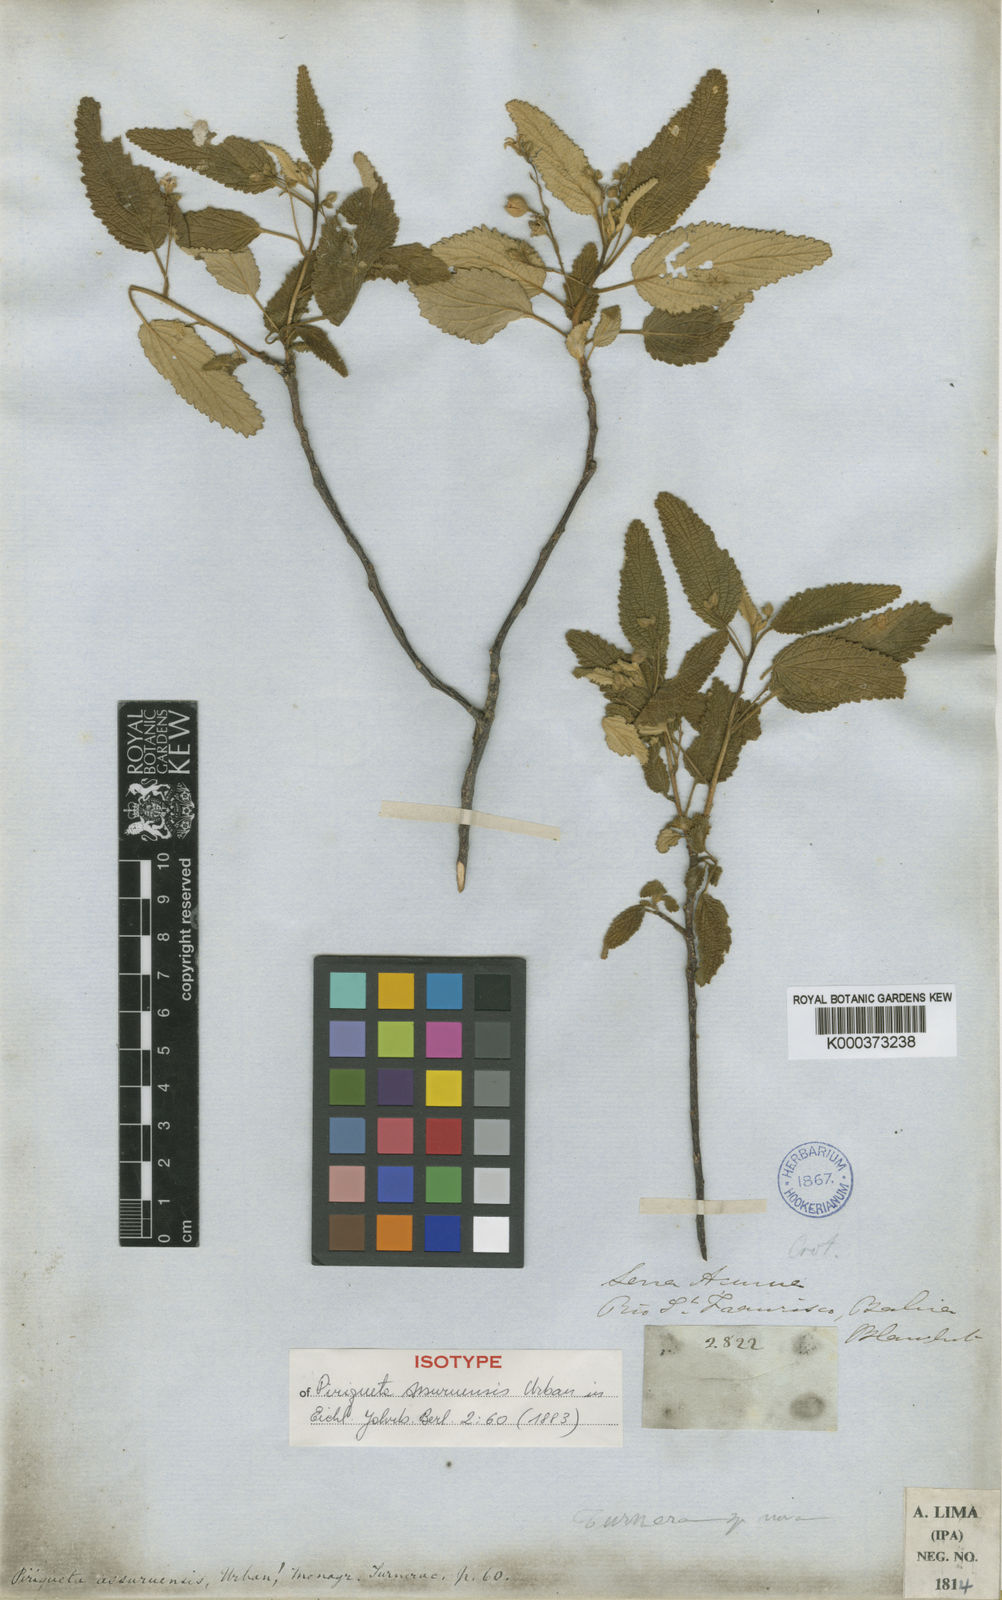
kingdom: Plantae
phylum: Tracheophyta
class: Magnoliopsida
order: Malpighiales
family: Turneraceae
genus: Piriqueta
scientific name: Piriqueta
